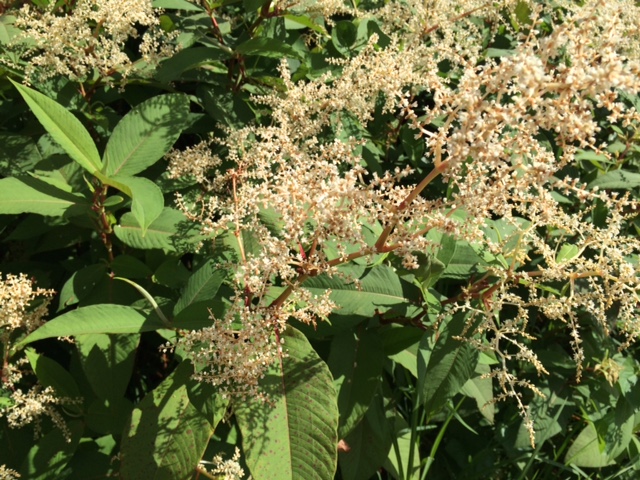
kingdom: Plantae
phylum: Tracheophyta
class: Magnoliopsida
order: Caryophyllales
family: Polygonaceae
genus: Koenigia
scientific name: Koenigia polystachya
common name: Himalayan knotweed
